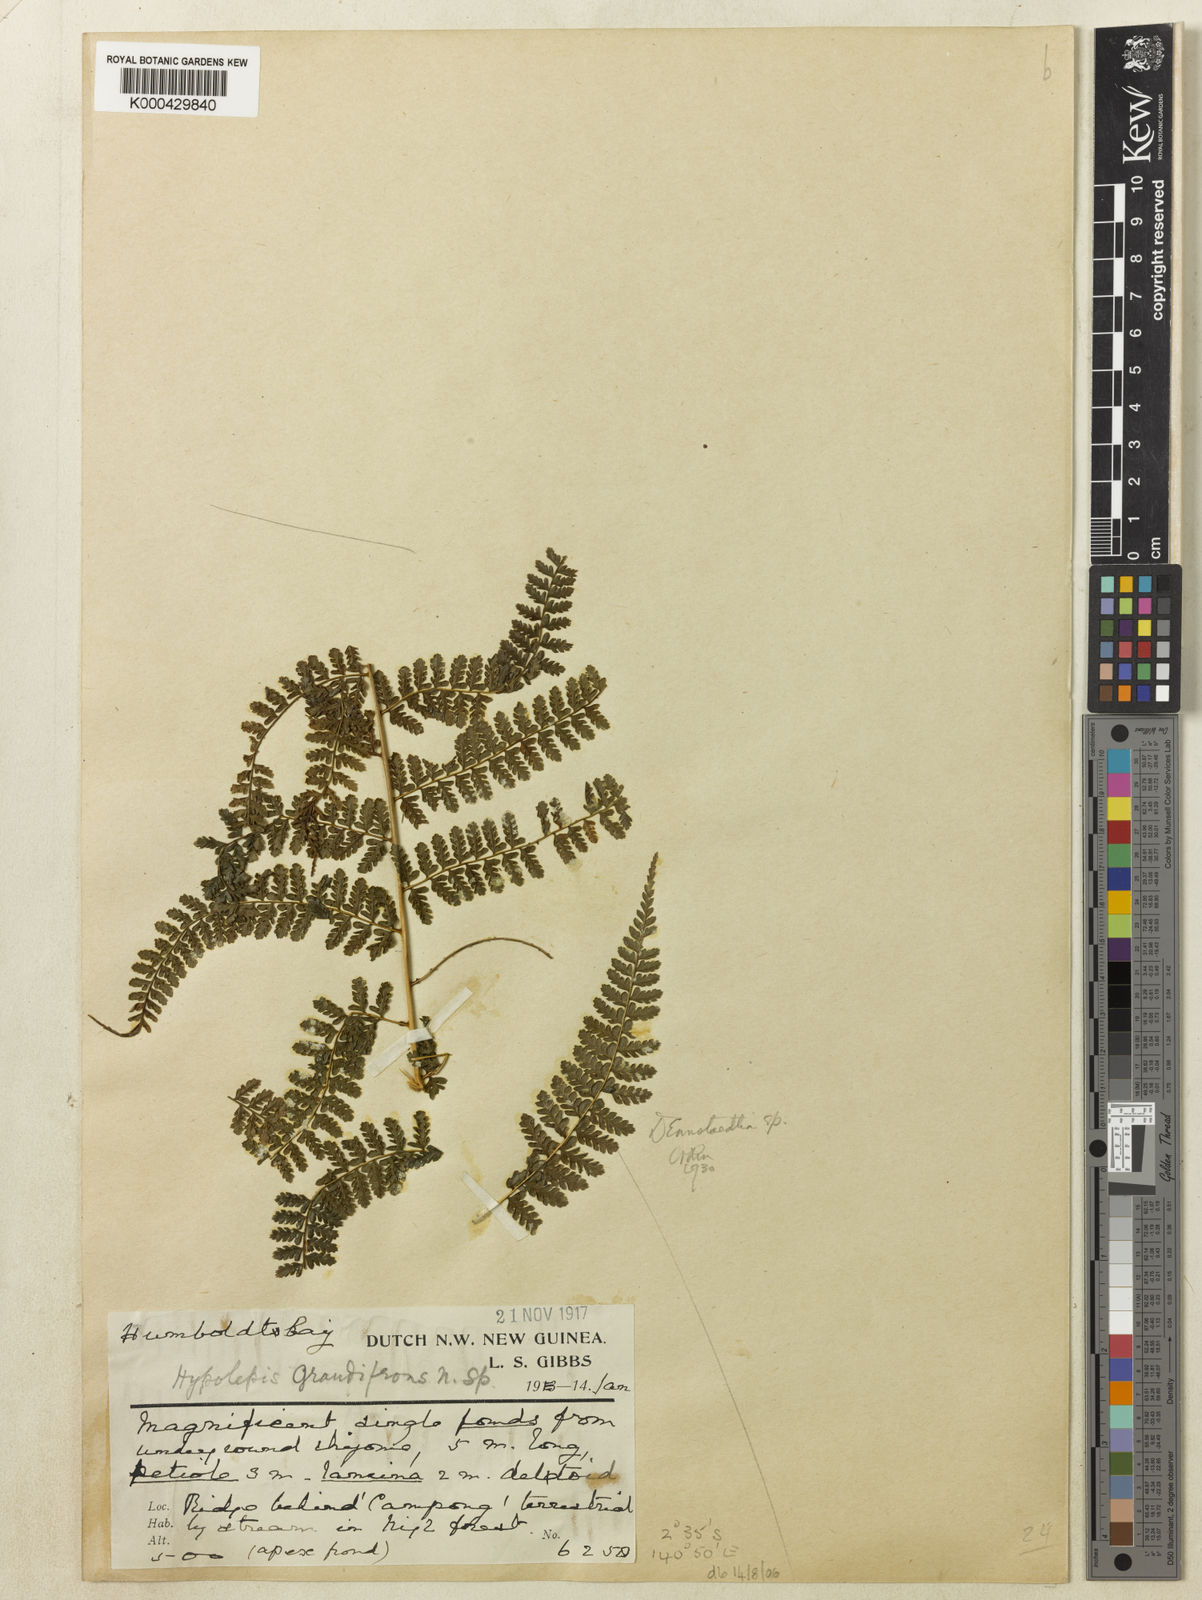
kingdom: Plantae
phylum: Tracheophyta
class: Polypodiopsida
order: Polypodiales
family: Dennstaedtiaceae
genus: Dennstaedtia
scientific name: Dennstaedtia samoensis
